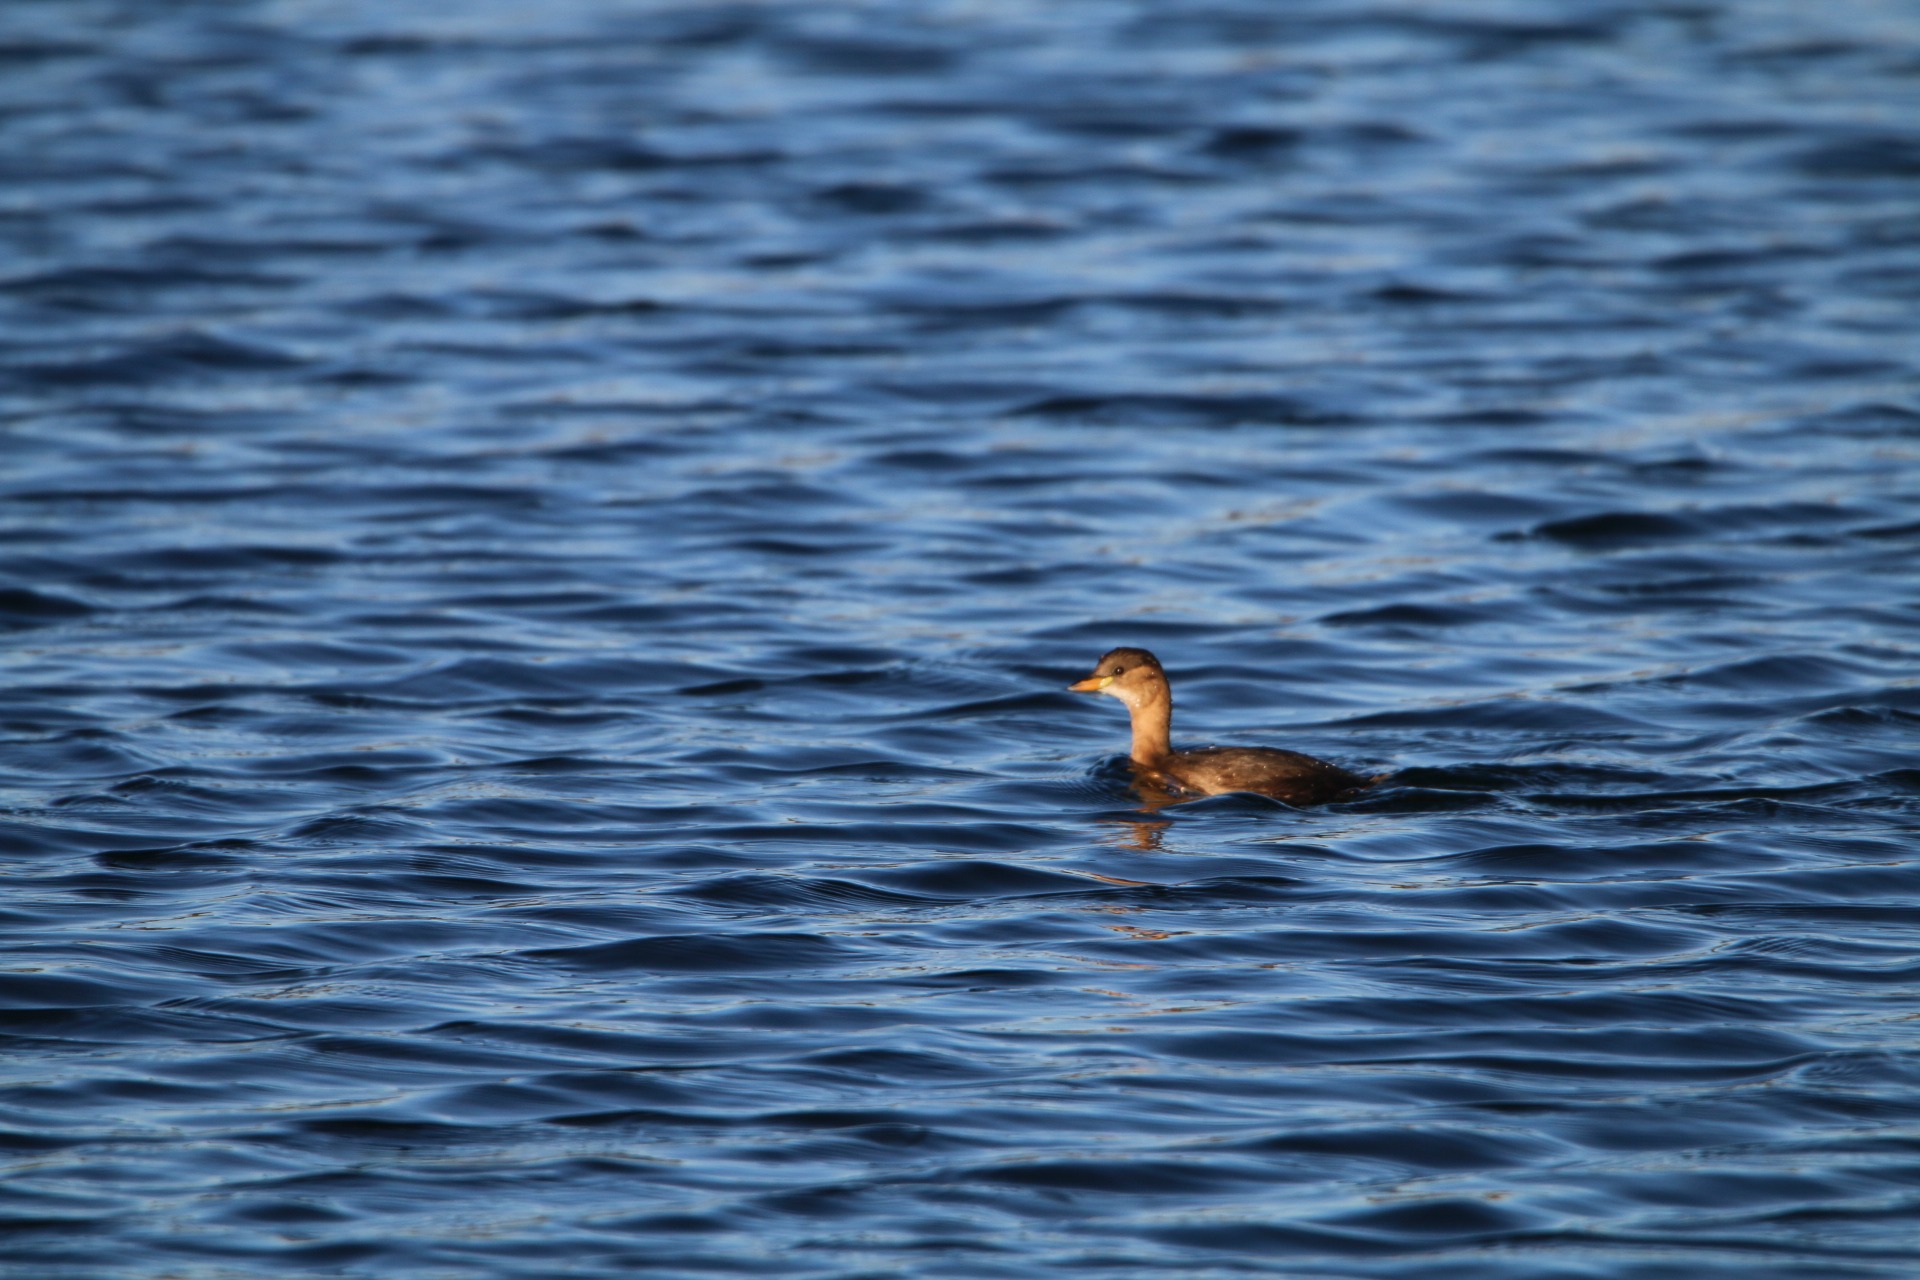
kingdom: Animalia
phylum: Chordata
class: Aves
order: Podicipediformes
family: Podicipedidae
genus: Tachybaptus
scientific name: Tachybaptus ruficollis
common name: Lille lappedykker
